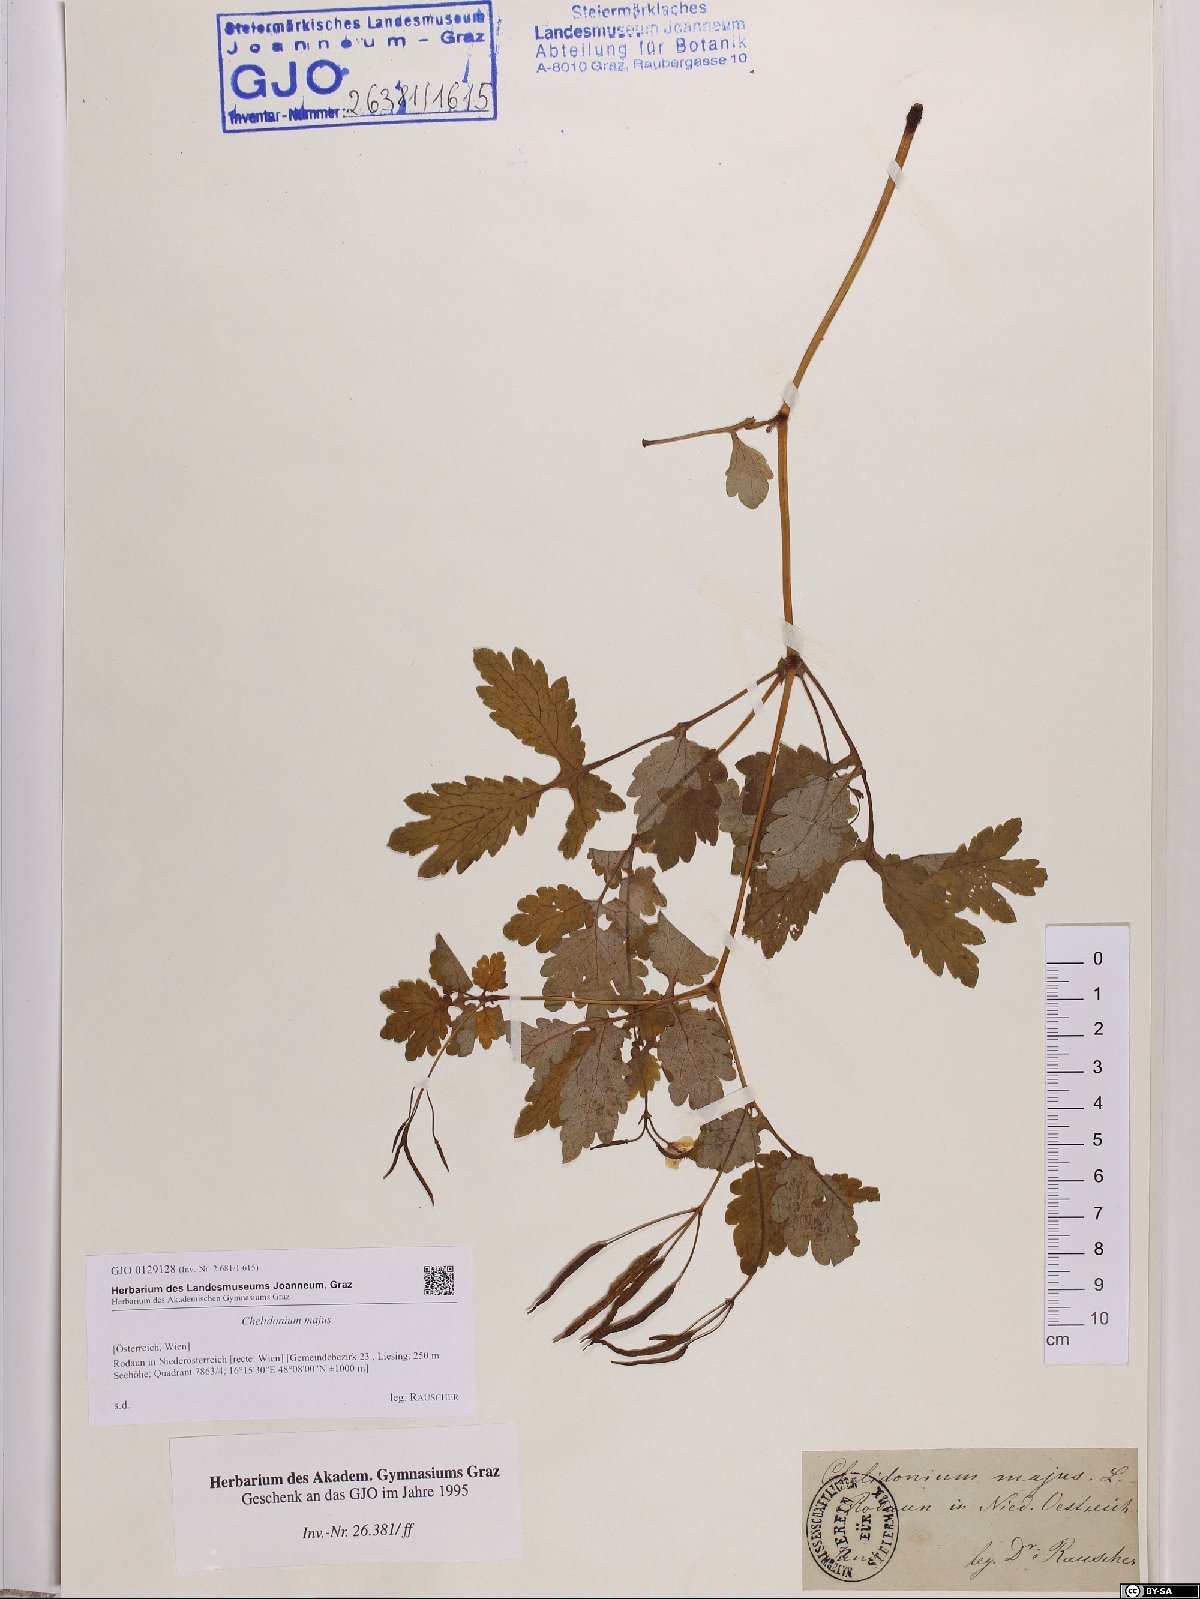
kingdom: Plantae
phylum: Tracheophyta
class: Magnoliopsida
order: Ranunculales
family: Papaveraceae
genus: Chelidonium
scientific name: Chelidonium majus
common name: Greater celandine
